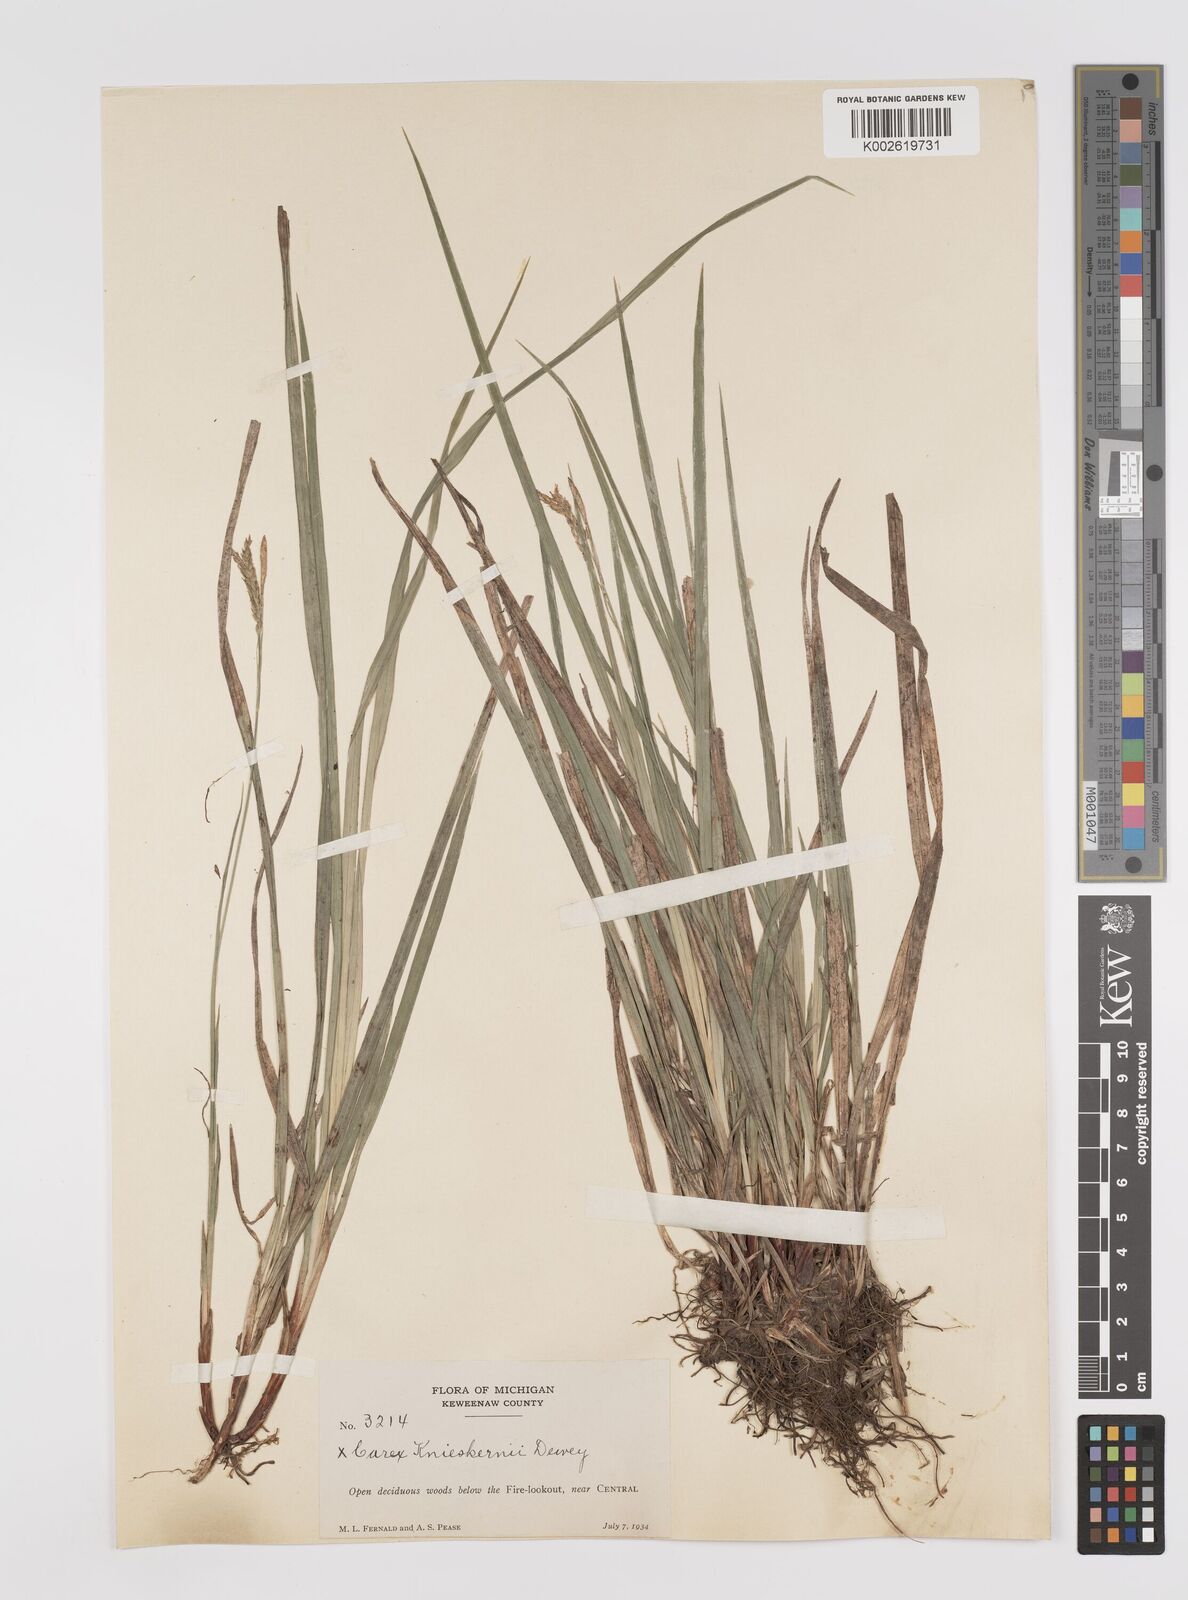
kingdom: Plantae
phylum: Tracheophyta
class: Liliopsida
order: Poales
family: Cyperaceae
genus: Carex
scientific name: Carex knieskernii
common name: Knieskern's sedge
